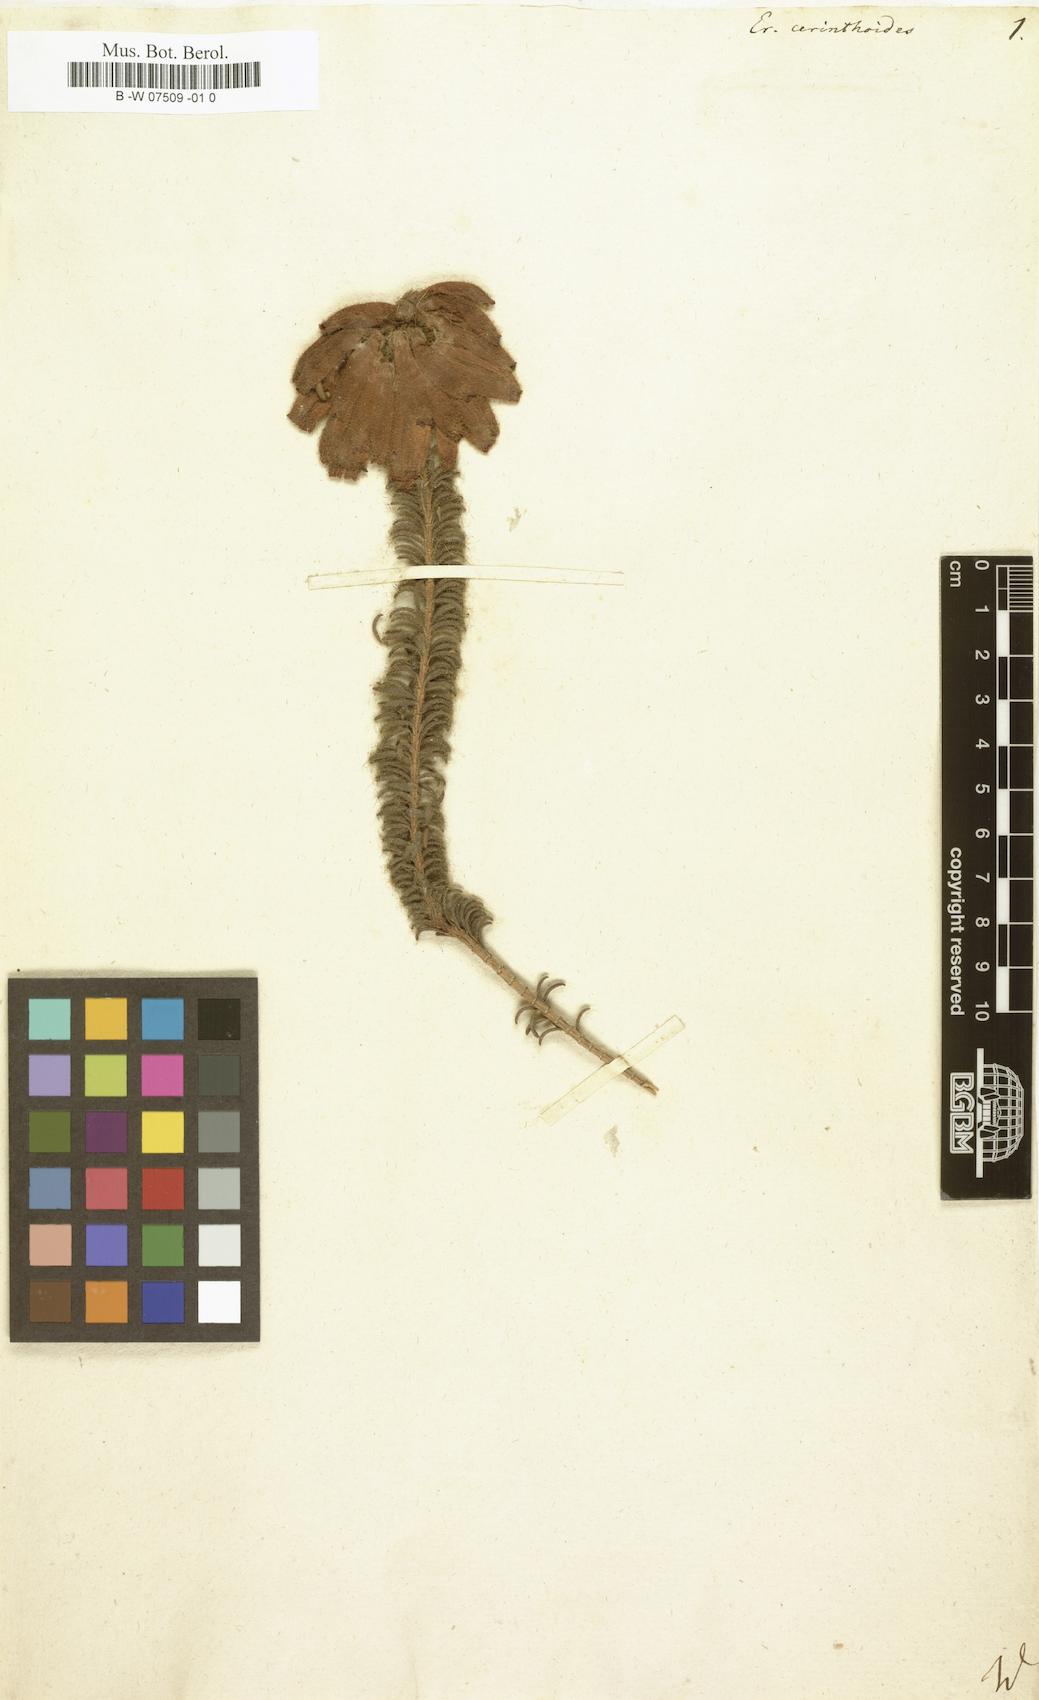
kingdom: Plantae
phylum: Tracheophyta
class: Magnoliopsida
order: Ericales
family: Ericaceae
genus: Erica
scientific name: Erica cerinthoides
